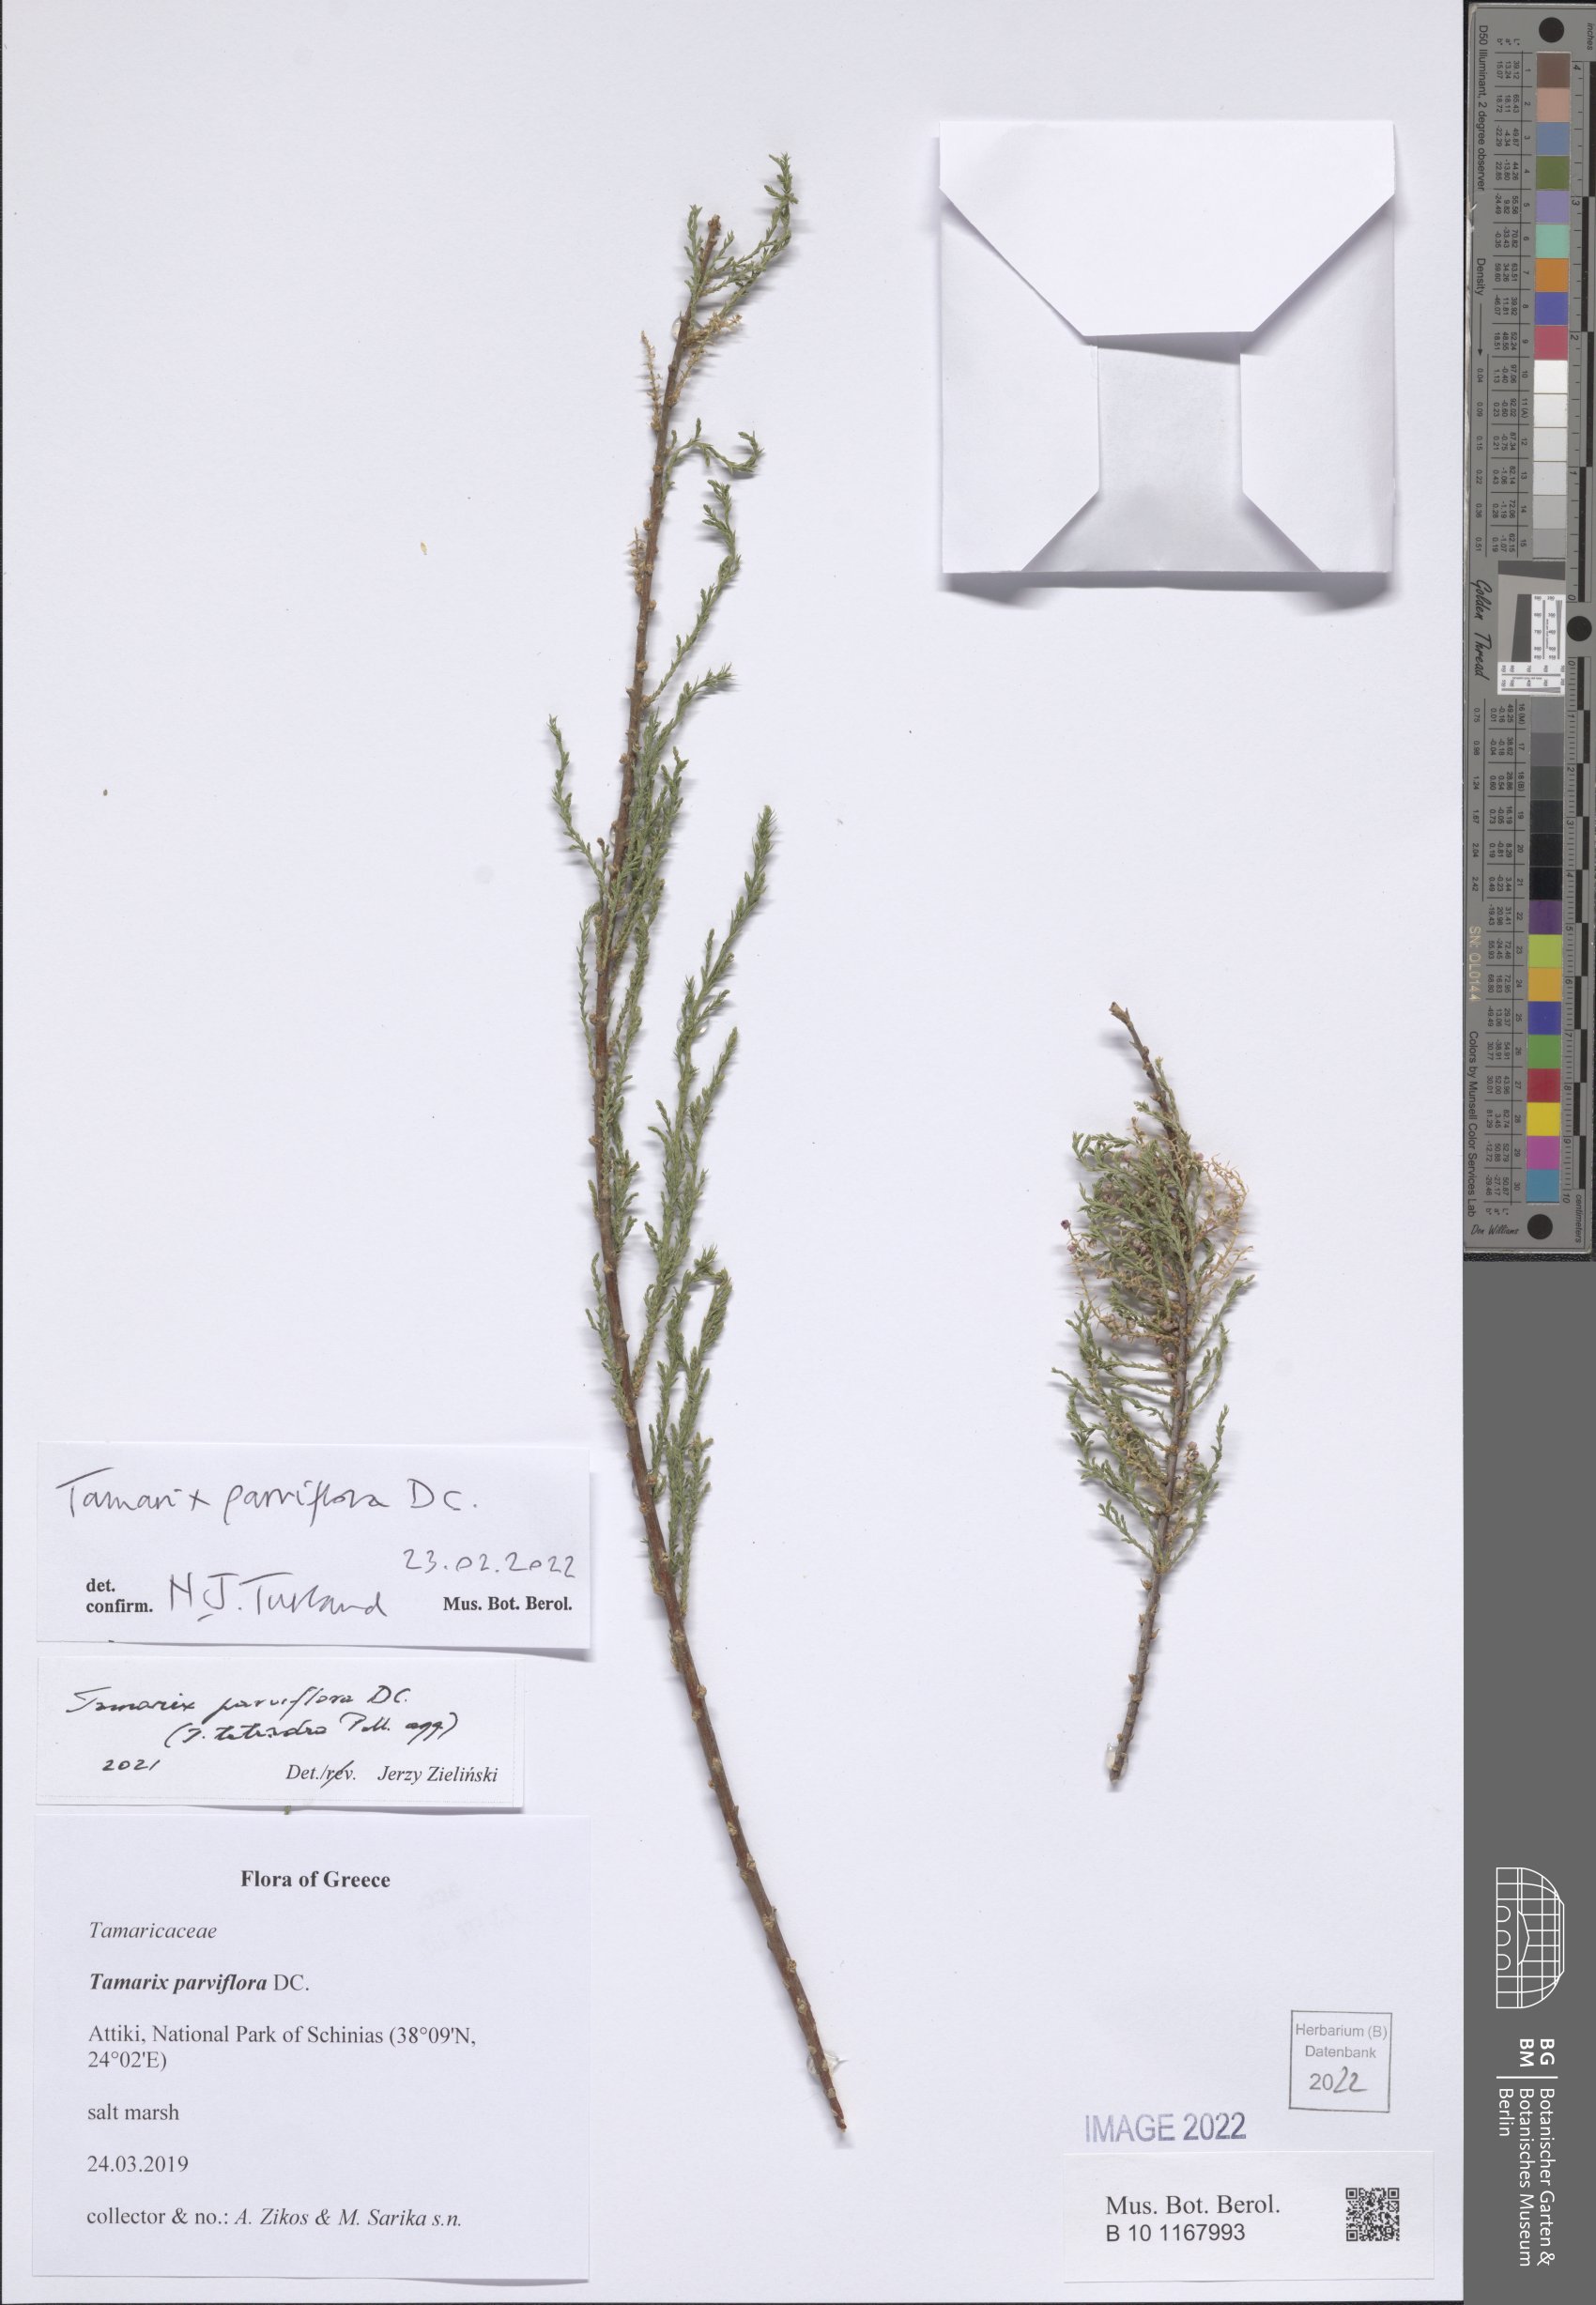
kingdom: Plantae
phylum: Tracheophyta
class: Magnoliopsida
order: Caryophyllales
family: Tamaricaceae
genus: Tamarix
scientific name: Tamarix parviflora
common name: Smallflower tamarisk
